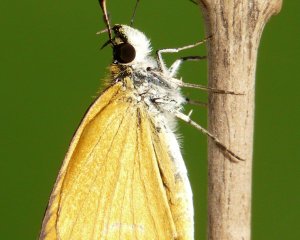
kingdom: Animalia
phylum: Arthropoda
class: Insecta
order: Lepidoptera
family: Hesperiidae
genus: Ancyloxypha
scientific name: Ancyloxypha numitor
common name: Least Skipper
